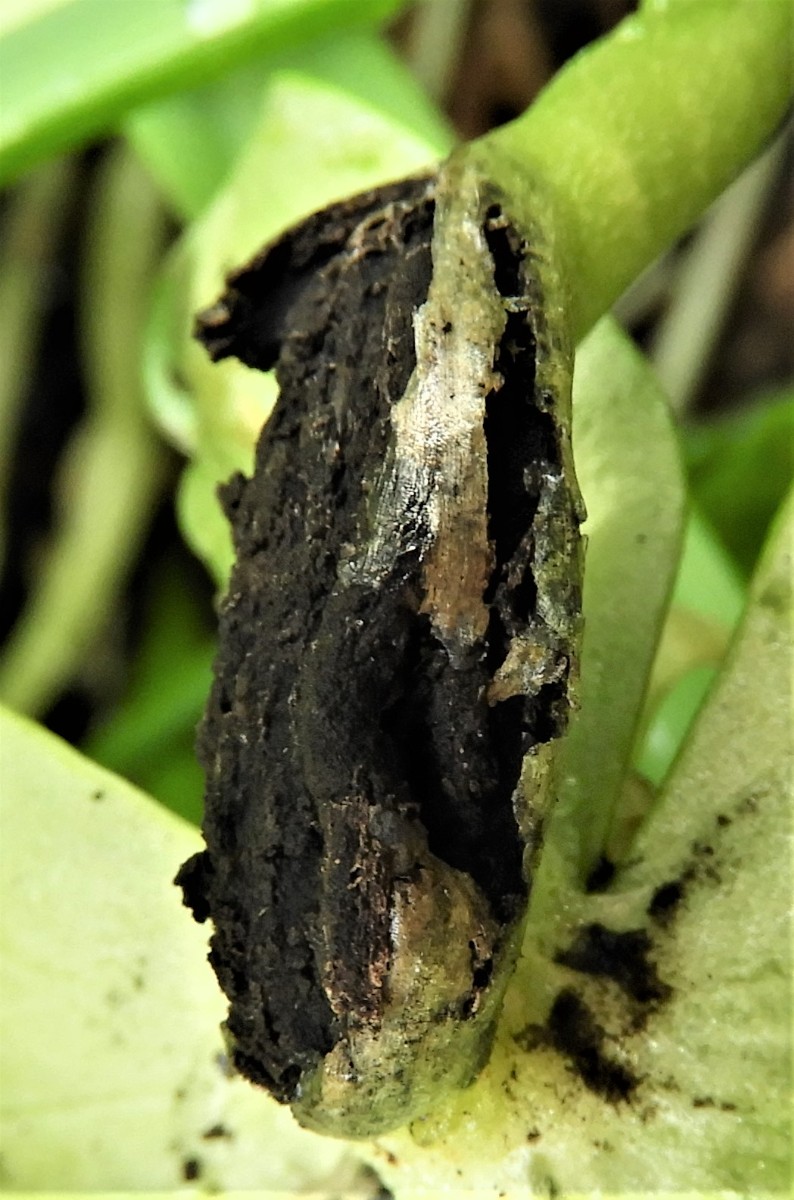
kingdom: Fungi
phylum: Basidiomycota
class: Ustilaginomycetes
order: Urocystidales
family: Urocystidaceae
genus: Urocystis
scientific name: Urocystis eranthidis
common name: erantis-brand
